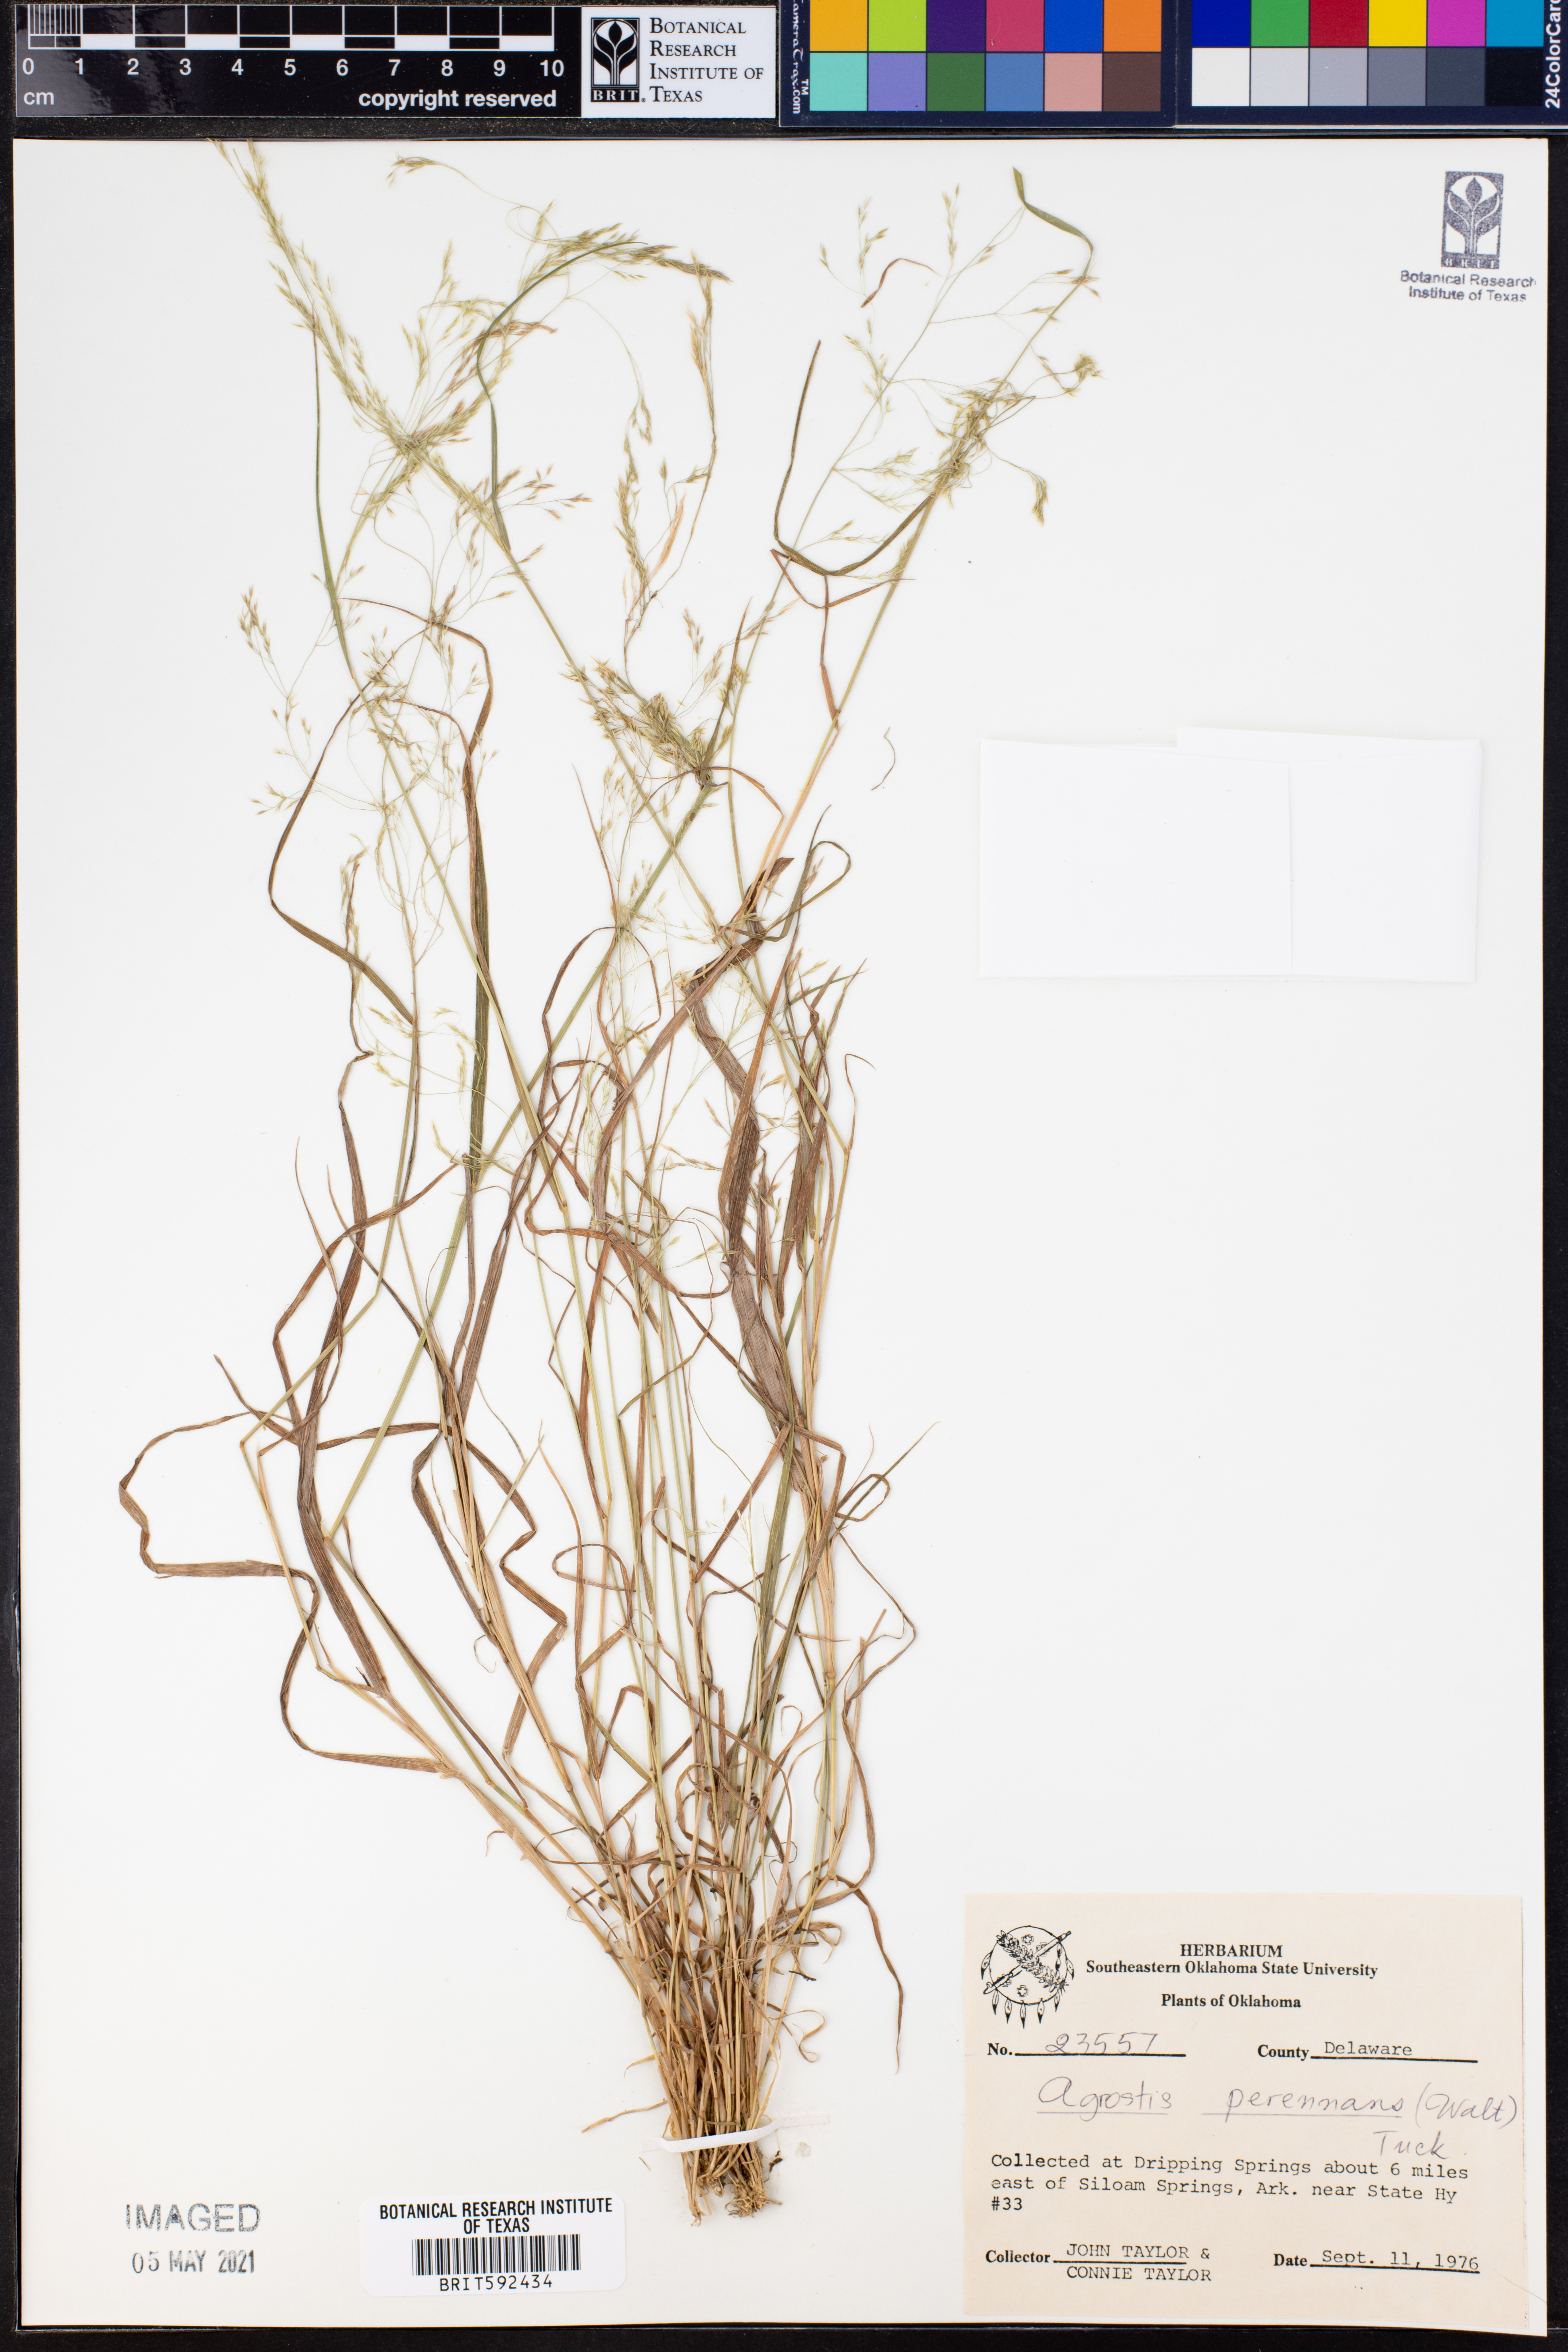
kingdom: Plantae
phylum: Tracheophyta
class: Liliopsida
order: Poales
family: Poaceae
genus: Agrostis
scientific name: Agrostis perennans
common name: Autumn bent
